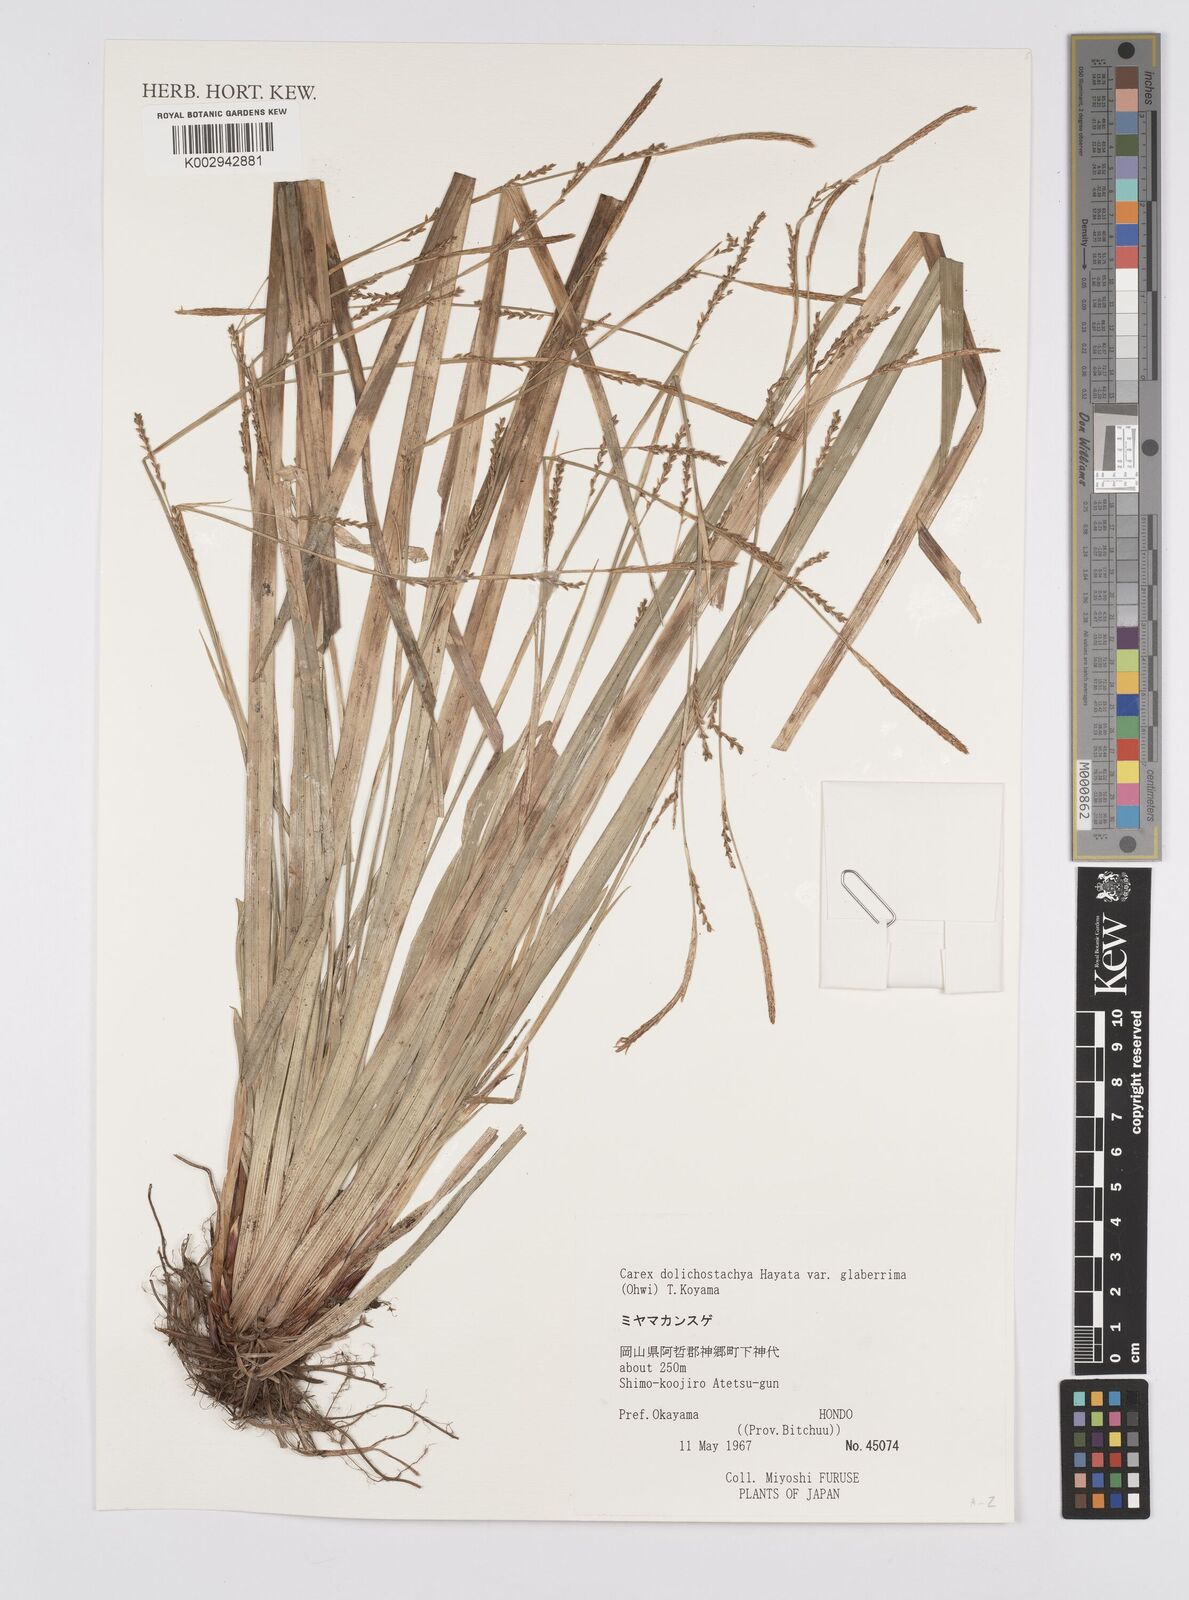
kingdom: Plantae
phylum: Tracheophyta
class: Liliopsida
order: Poales
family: Cyperaceae
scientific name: Cyperaceae
